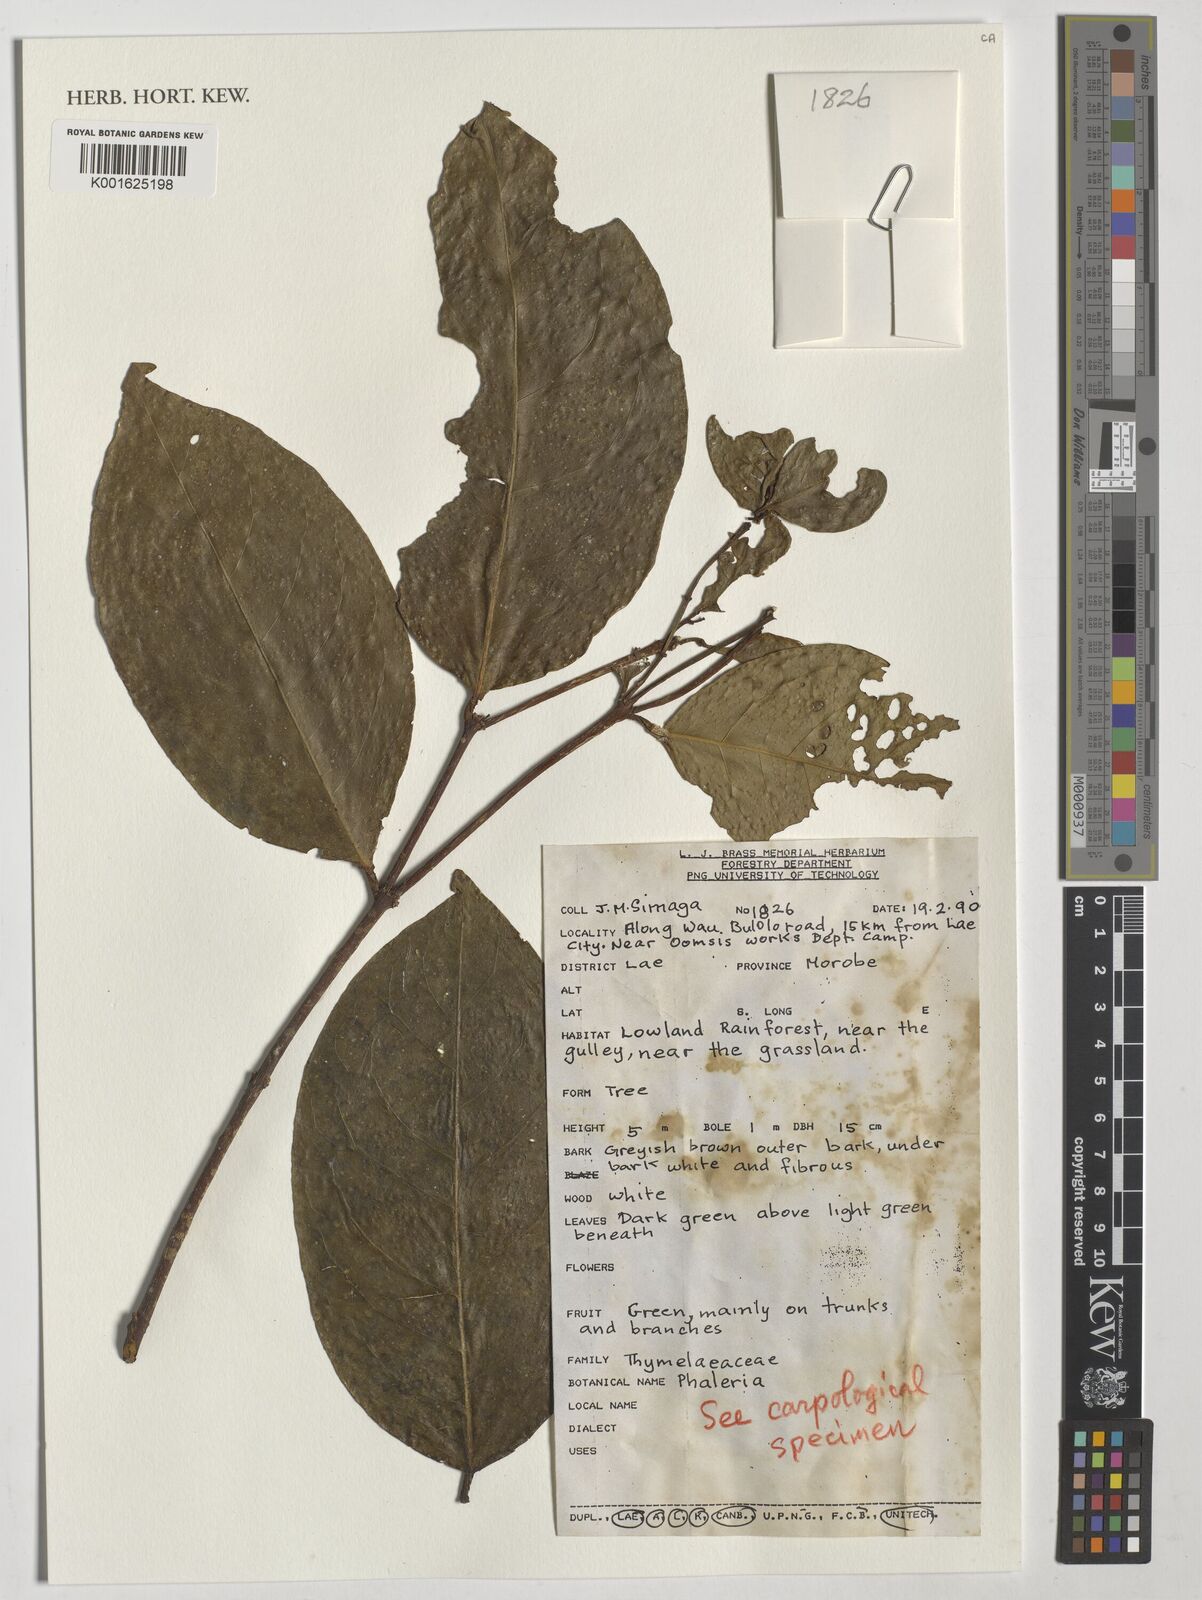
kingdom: Plantae
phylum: Tracheophyta
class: Magnoliopsida
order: Malvales
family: Thymelaeaceae
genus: Phaleria
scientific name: Phaleria
